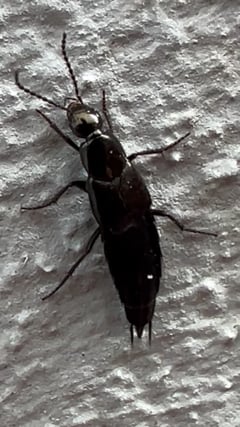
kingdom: Animalia
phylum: Arthropoda
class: Insecta
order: Coleoptera
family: Staphylinidae
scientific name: Staphylinidae
